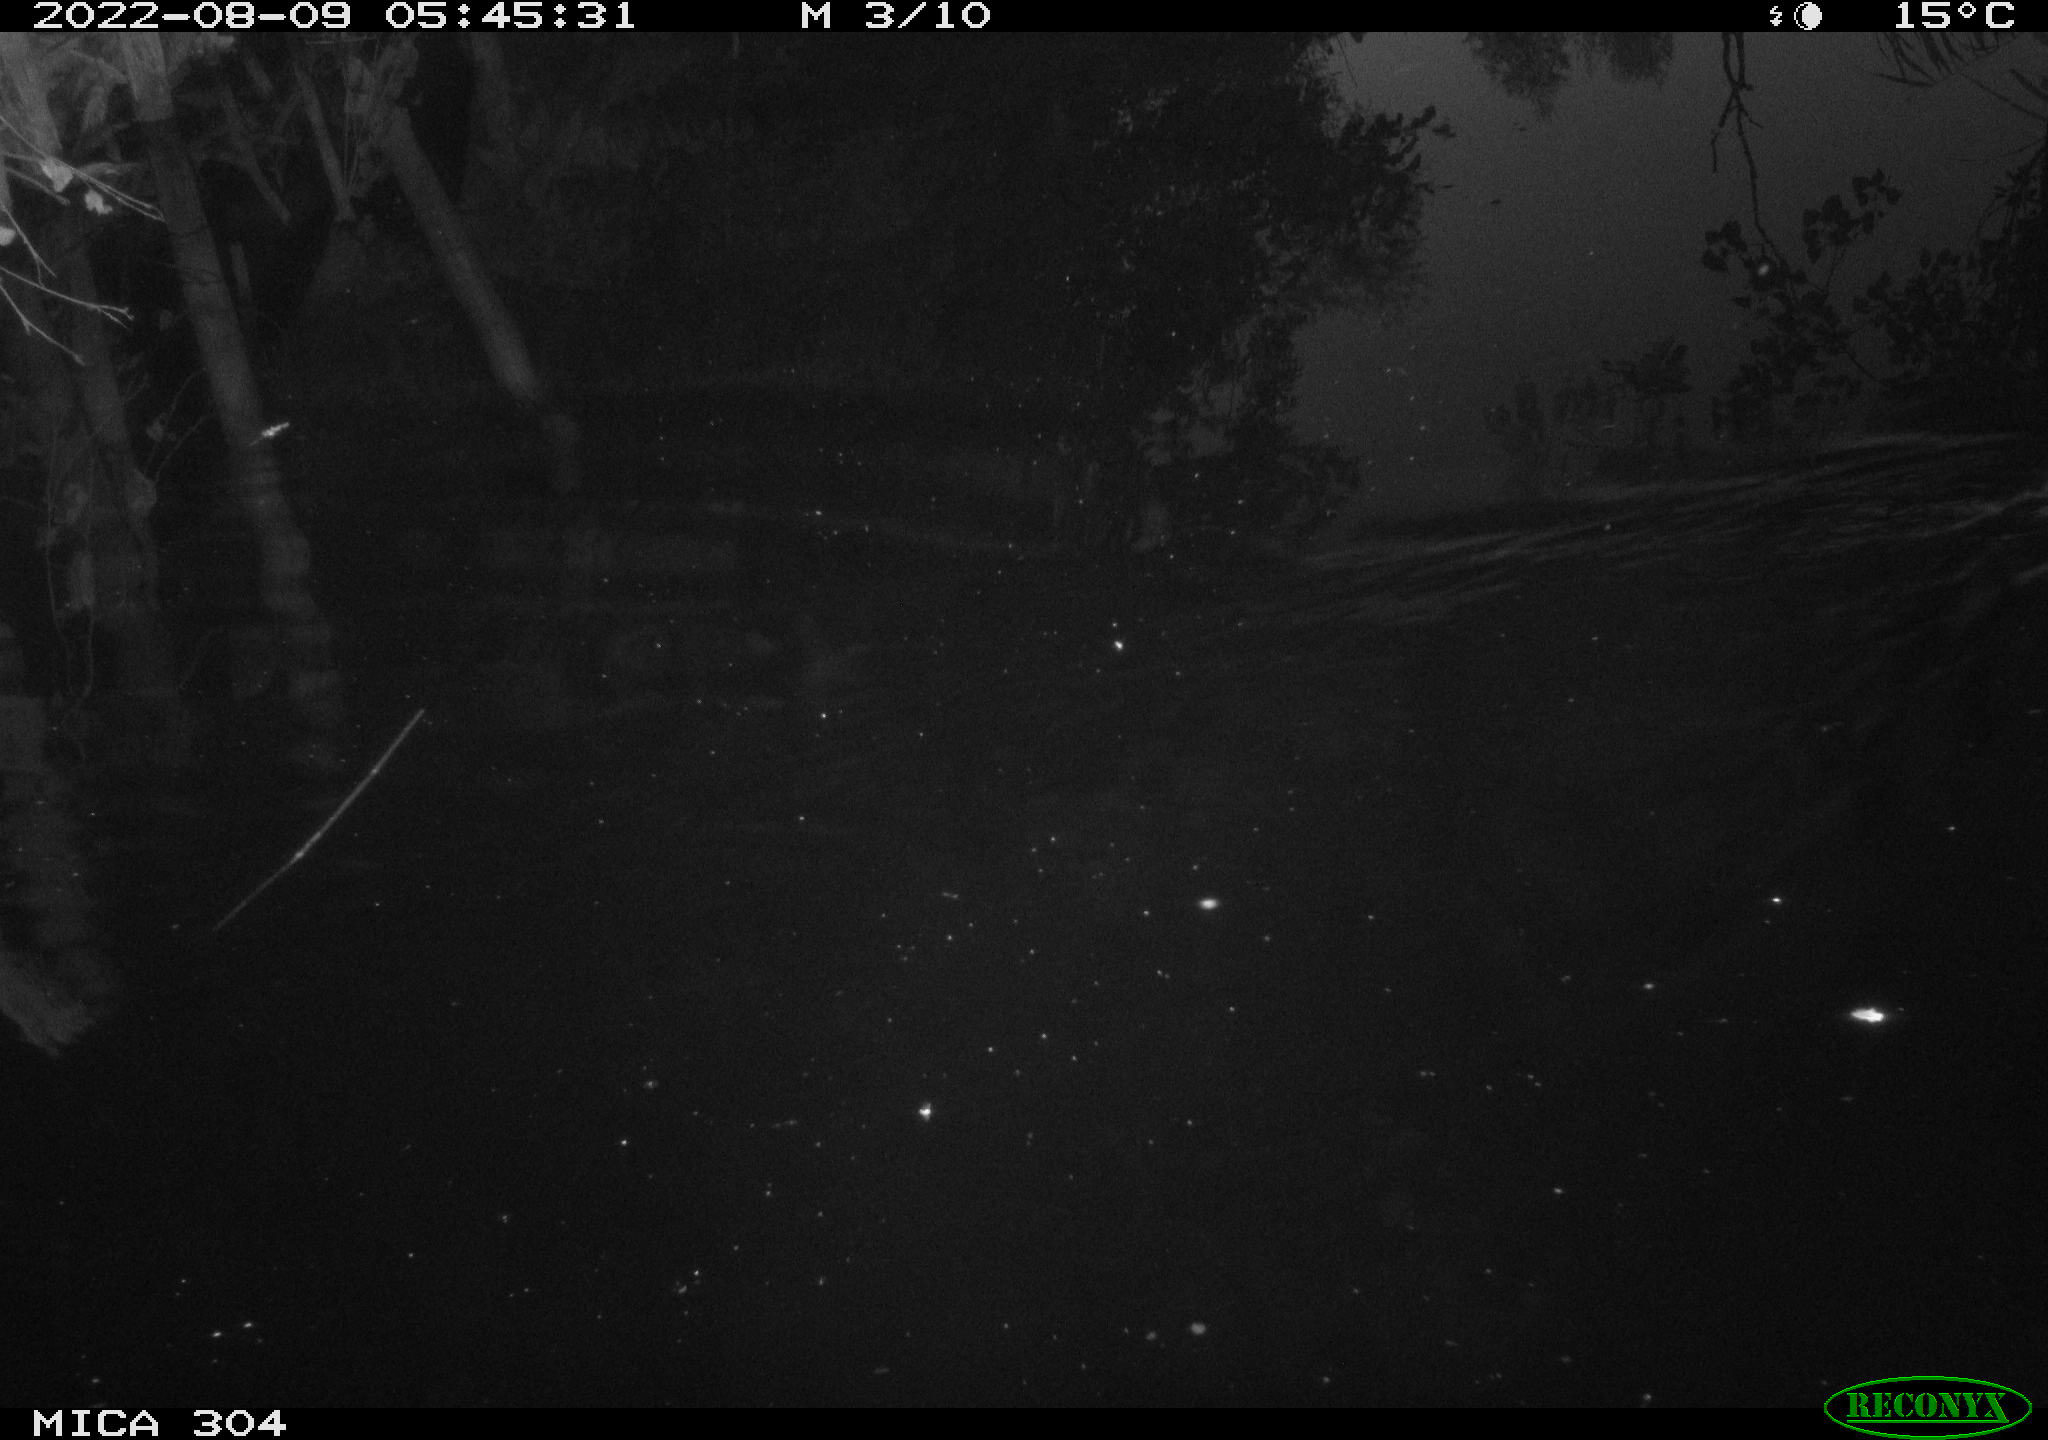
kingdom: Animalia
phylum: Chordata
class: Mammalia
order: Rodentia
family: Muridae
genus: Rattus
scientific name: Rattus norvegicus
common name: Brown rat
